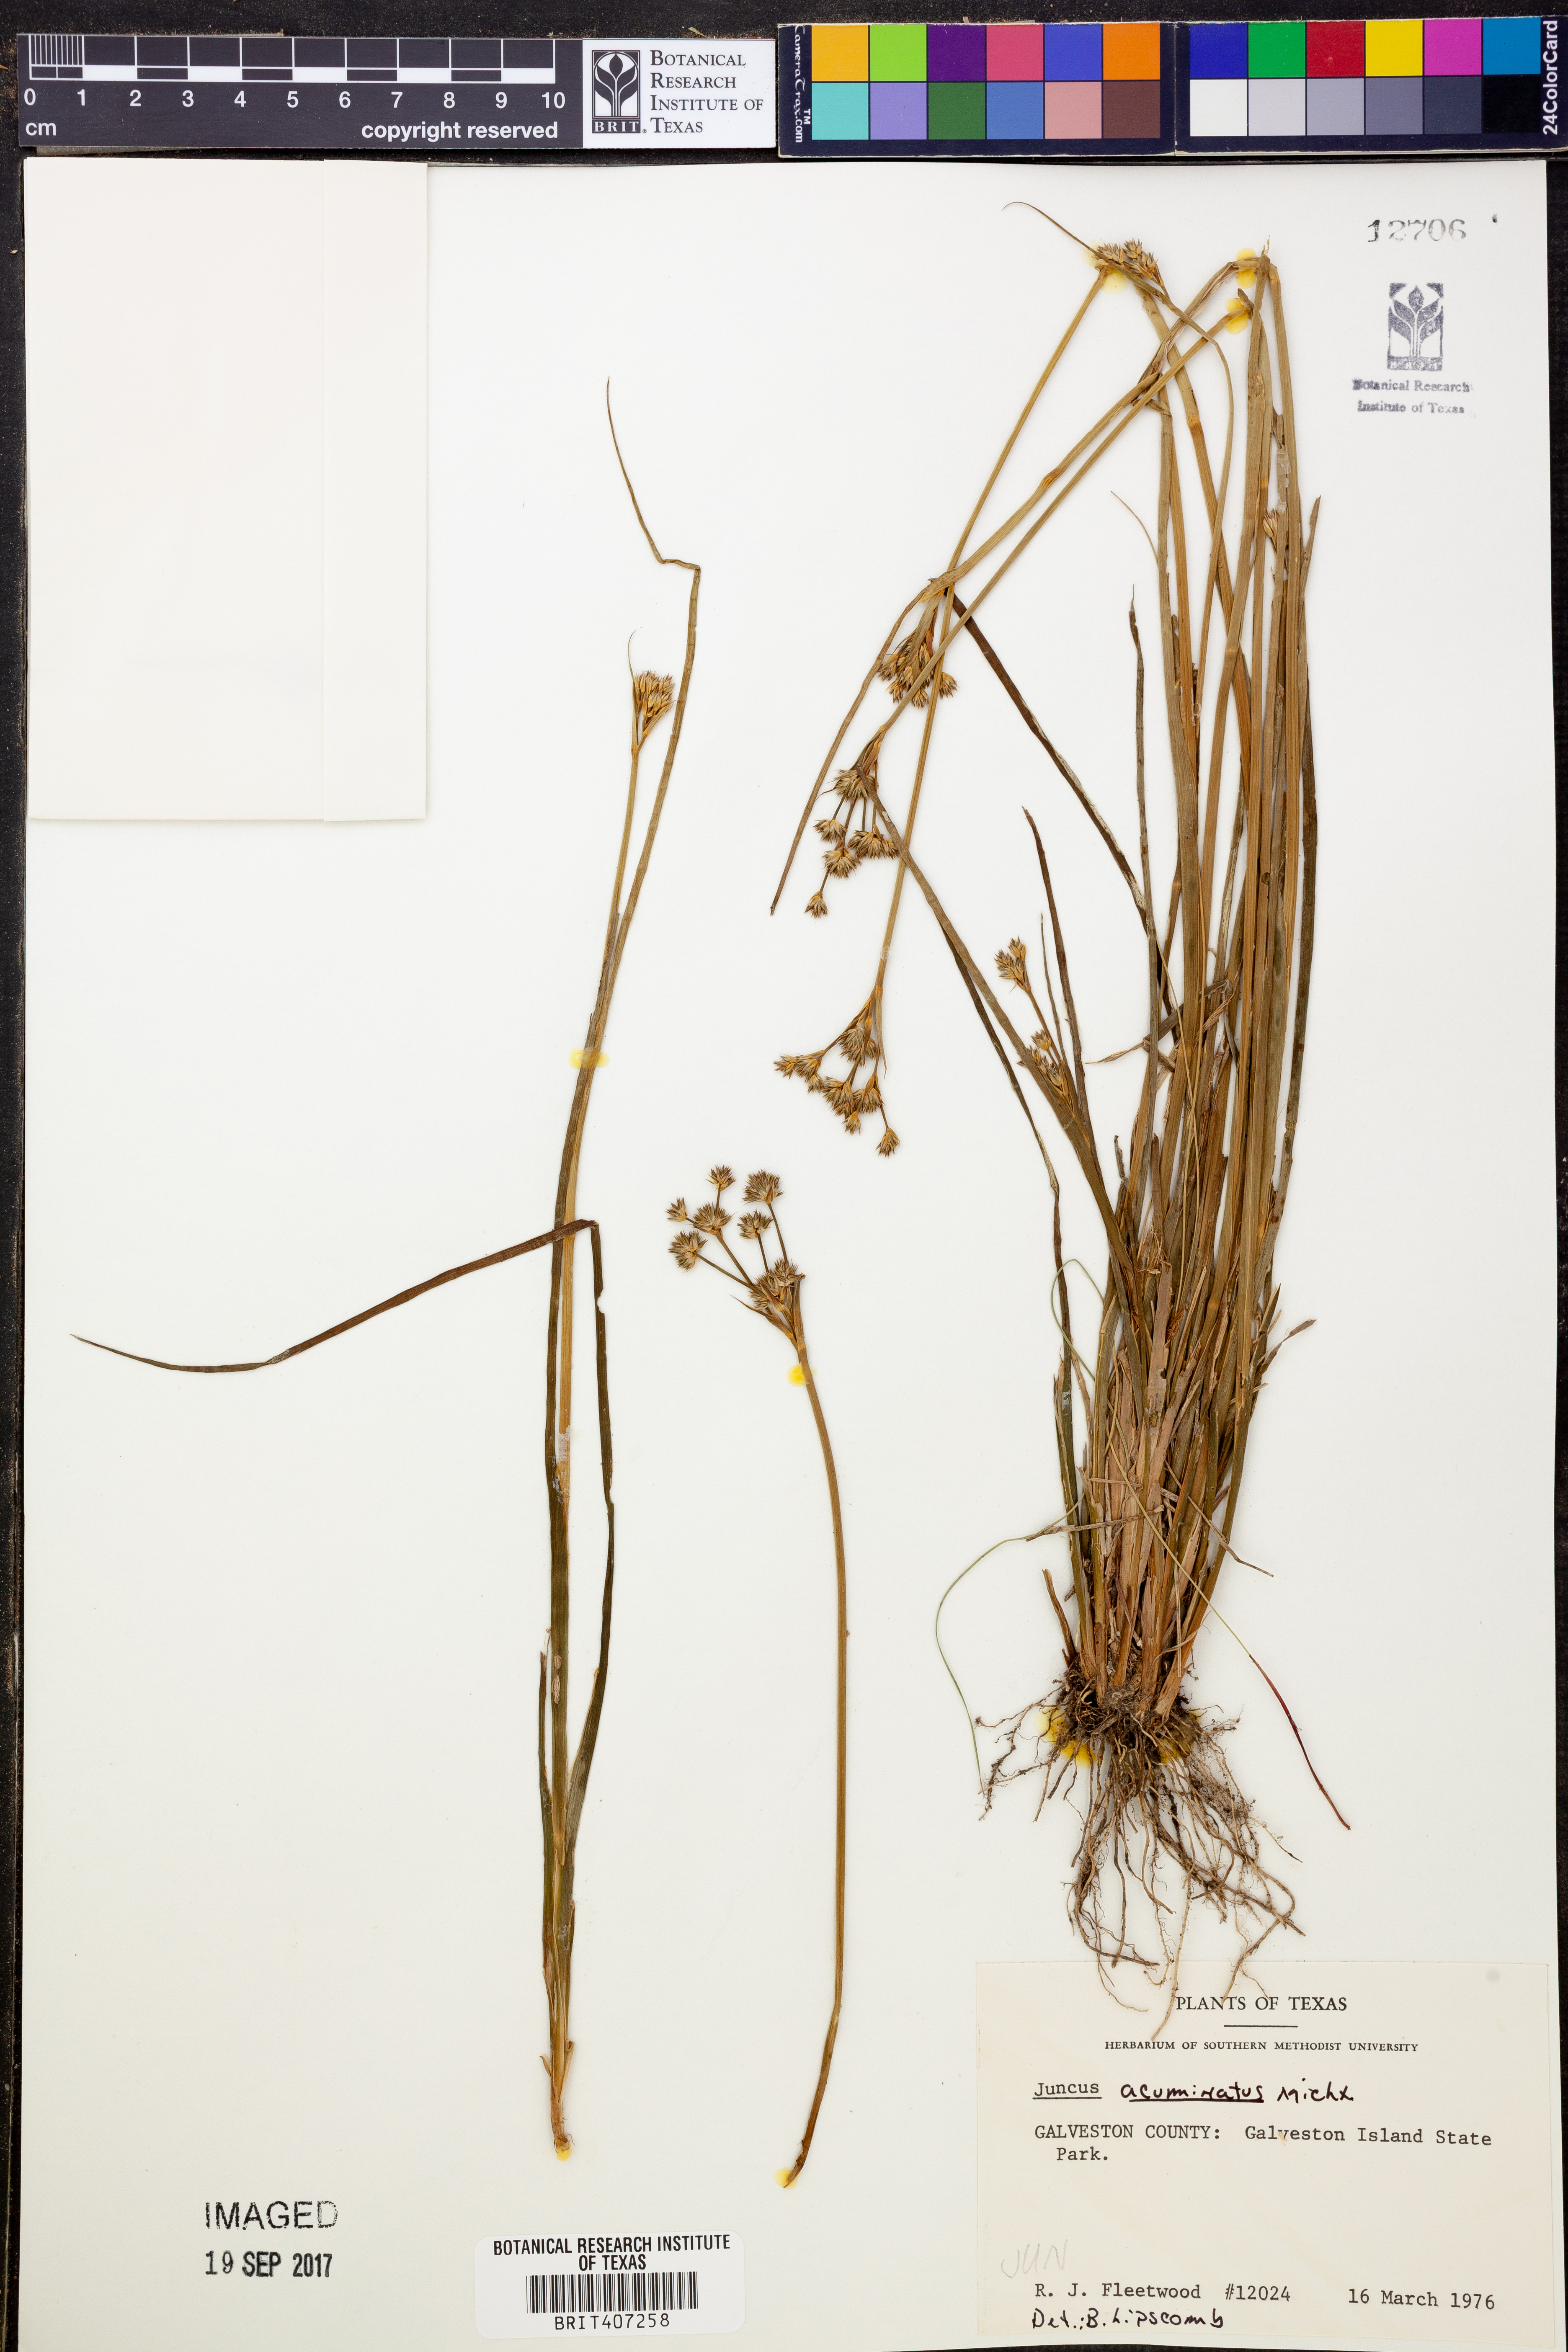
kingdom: Plantae
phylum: Tracheophyta
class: Liliopsida
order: Poales
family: Juncaceae
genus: Juncus
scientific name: Juncus acuminatus
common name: Knotty-leaved rush
